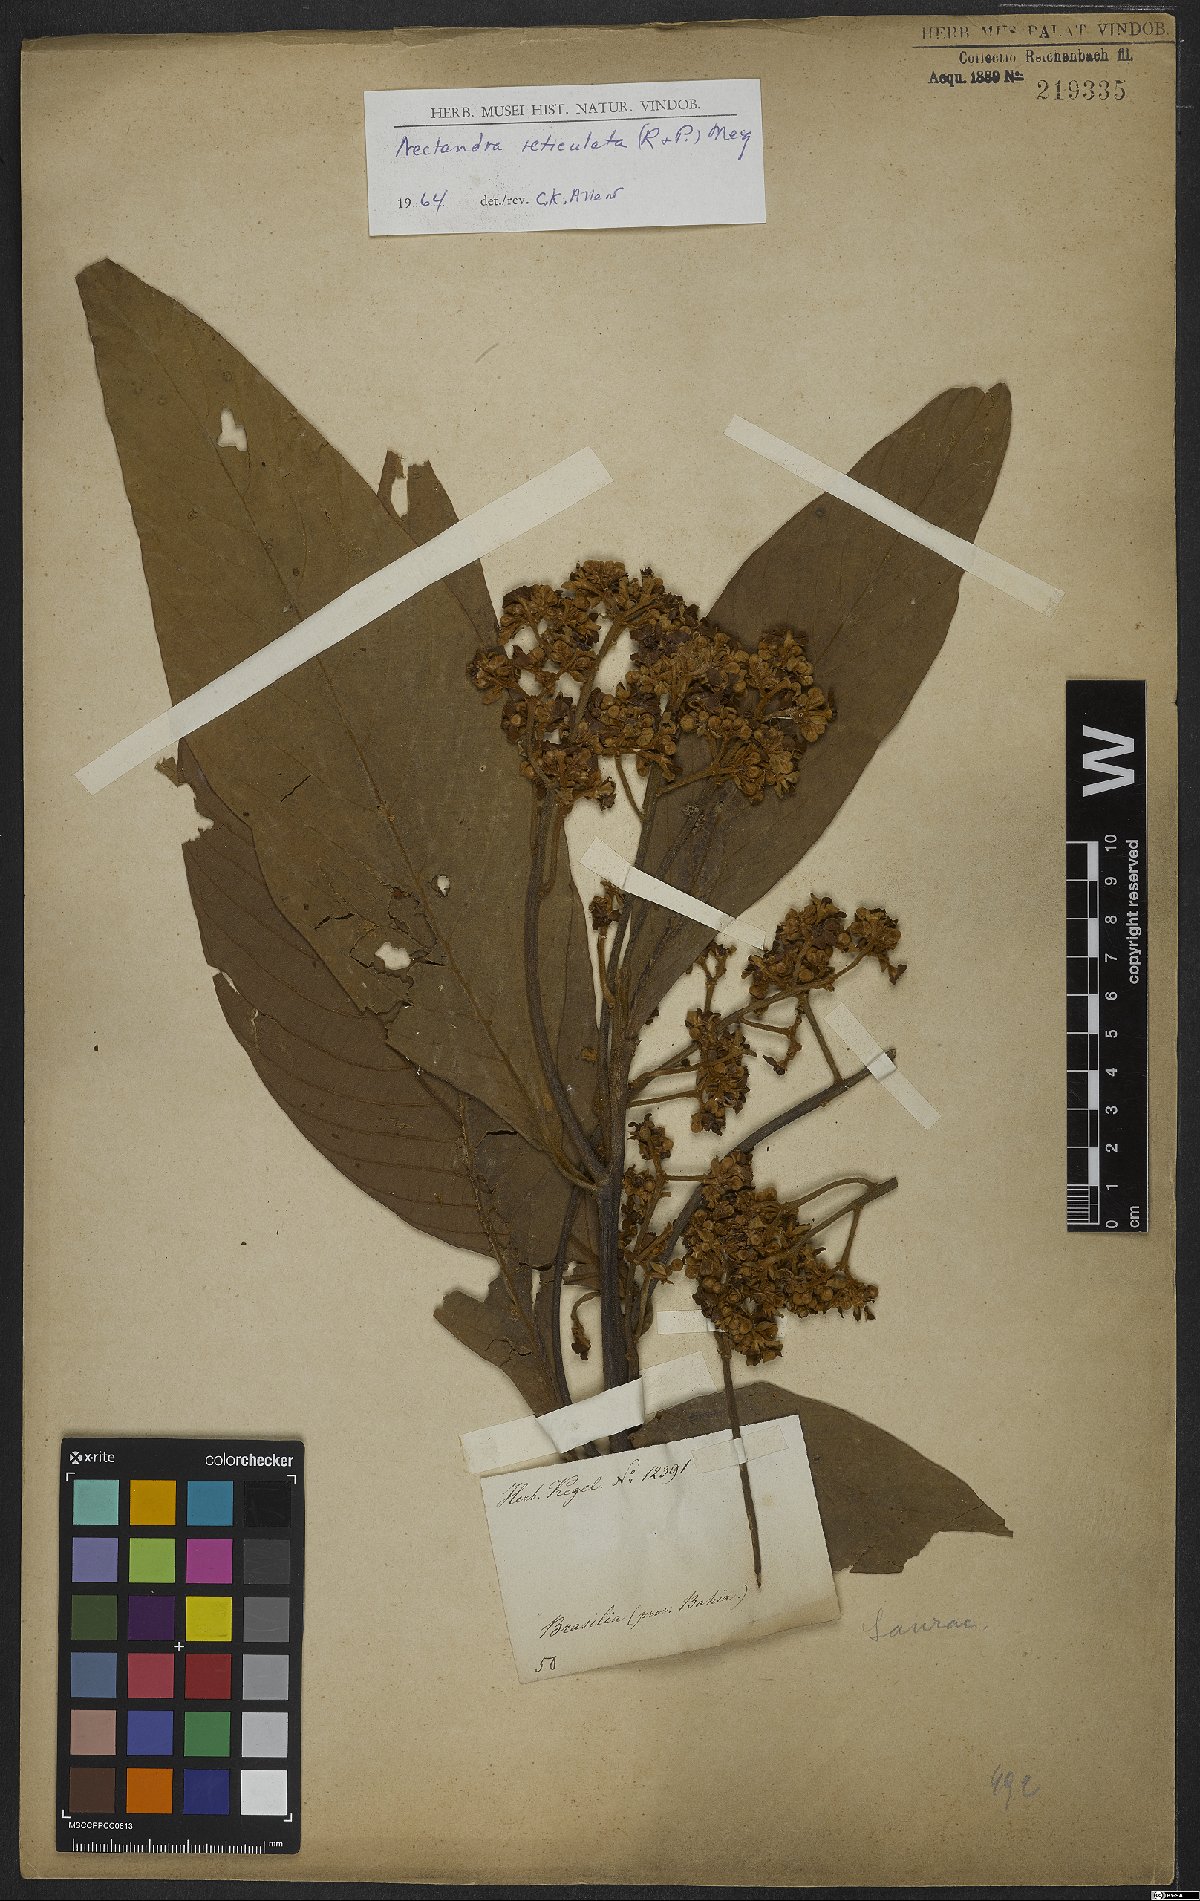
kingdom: Plantae
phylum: Tracheophyta
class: Magnoliopsida
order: Laurales
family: Lauraceae
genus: Nectandra
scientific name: Nectandra villosa
